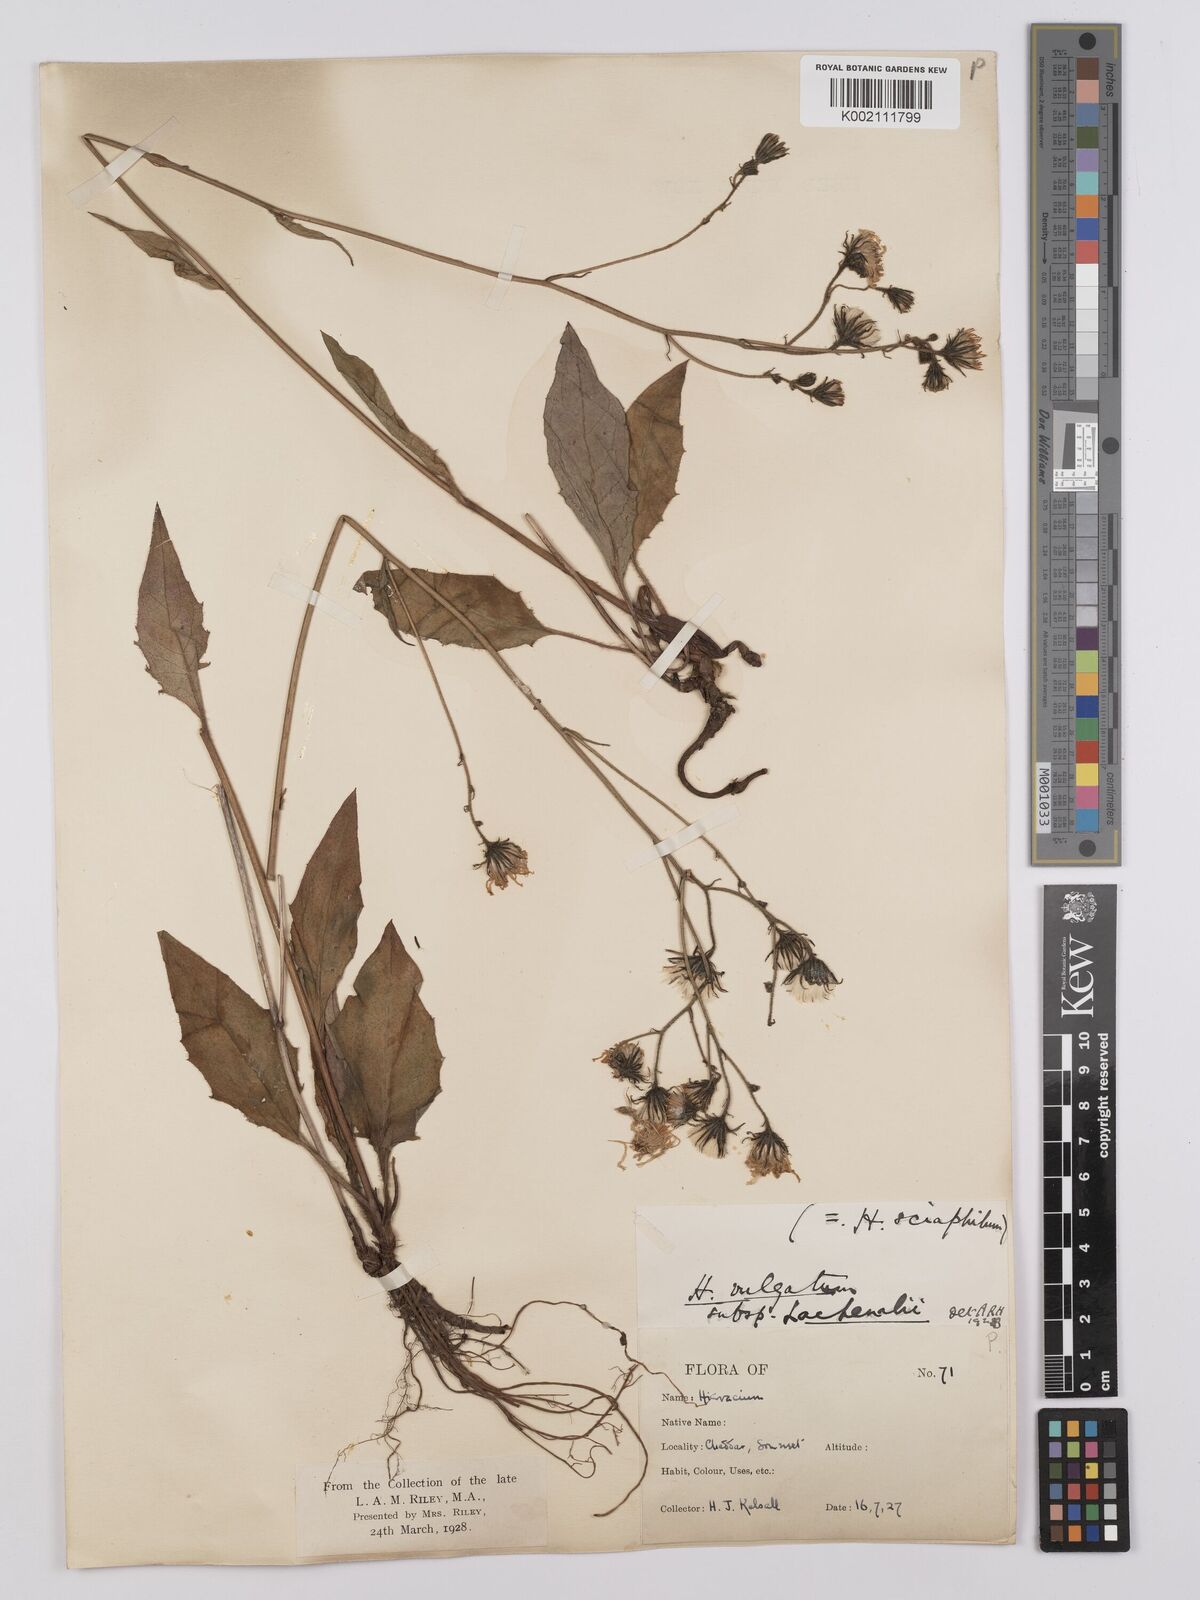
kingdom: Plantae
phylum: Tracheophyta
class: Magnoliopsida
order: Asterales
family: Asteraceae
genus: Hieracium
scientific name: Hieracium lachenalii
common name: Common hawkweed
